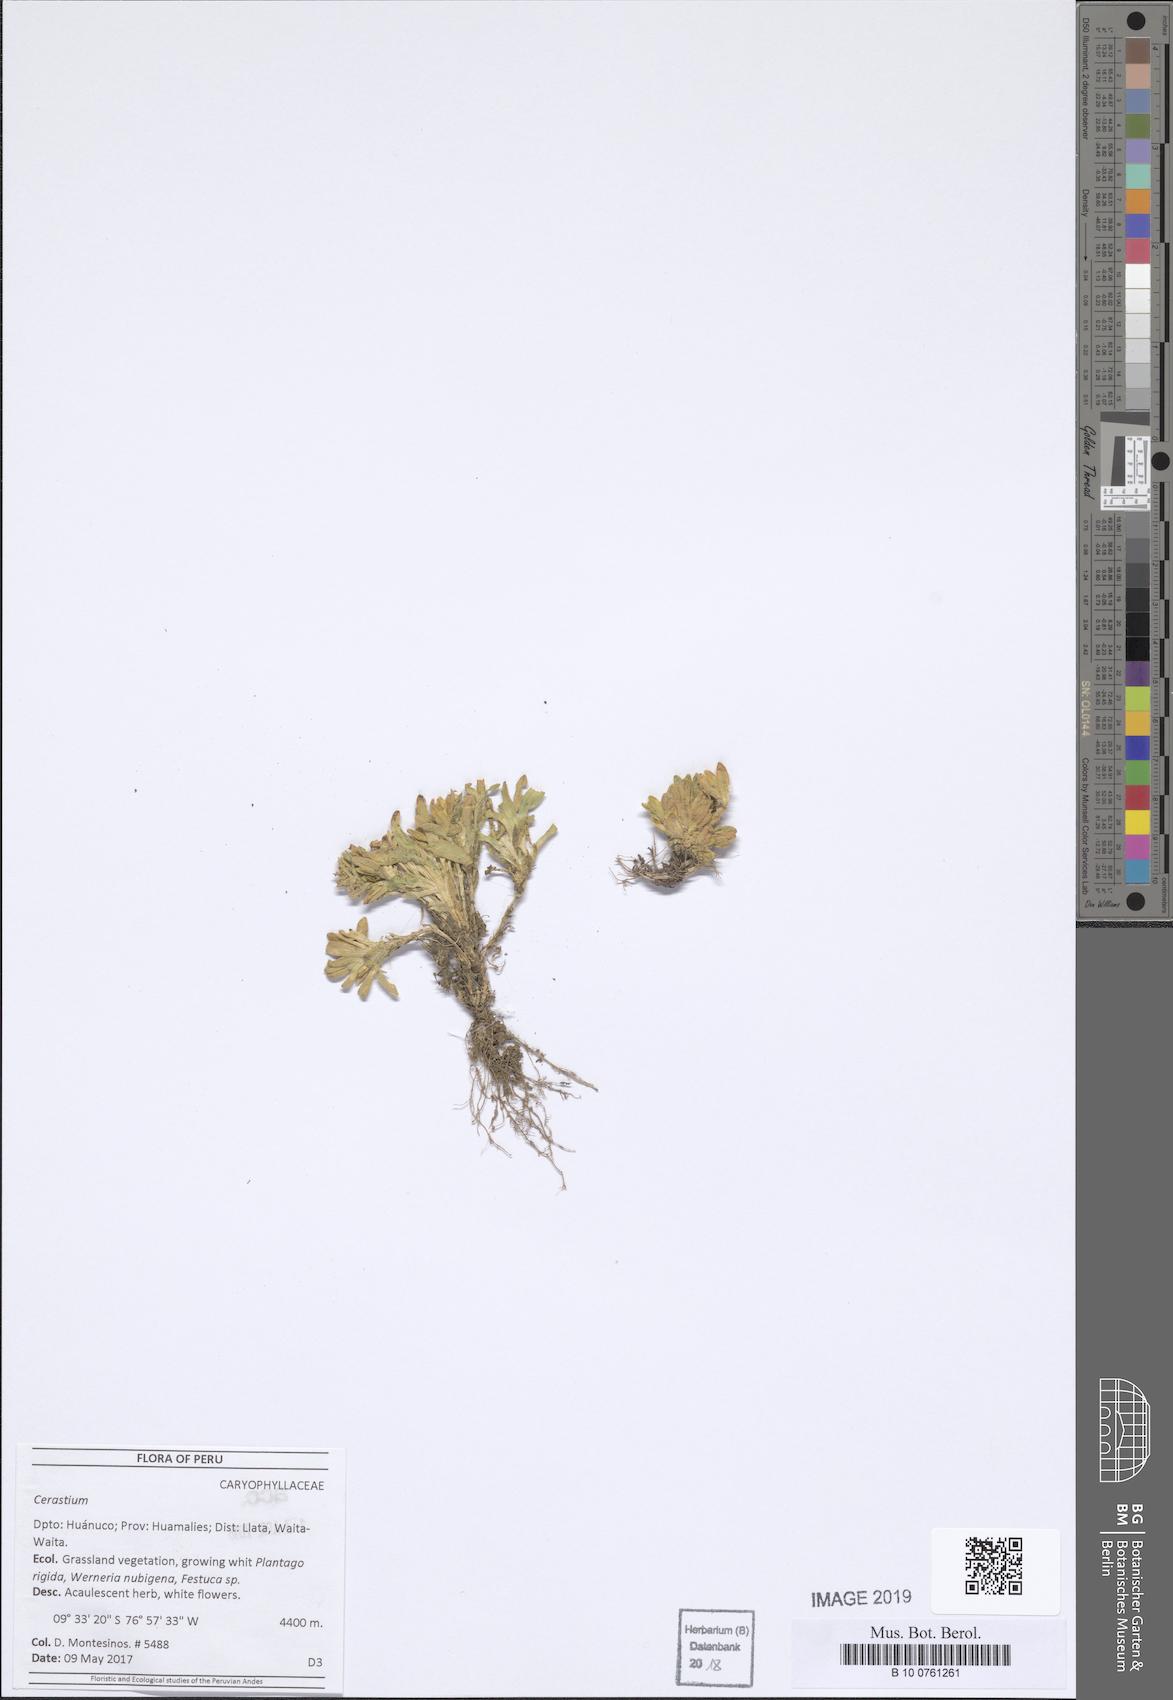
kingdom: Plantae
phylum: Tracheophyta
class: Magnoliopsida
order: Caryophyllales
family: Caryophyllaceae
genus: Cerastium
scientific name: Cerastium
